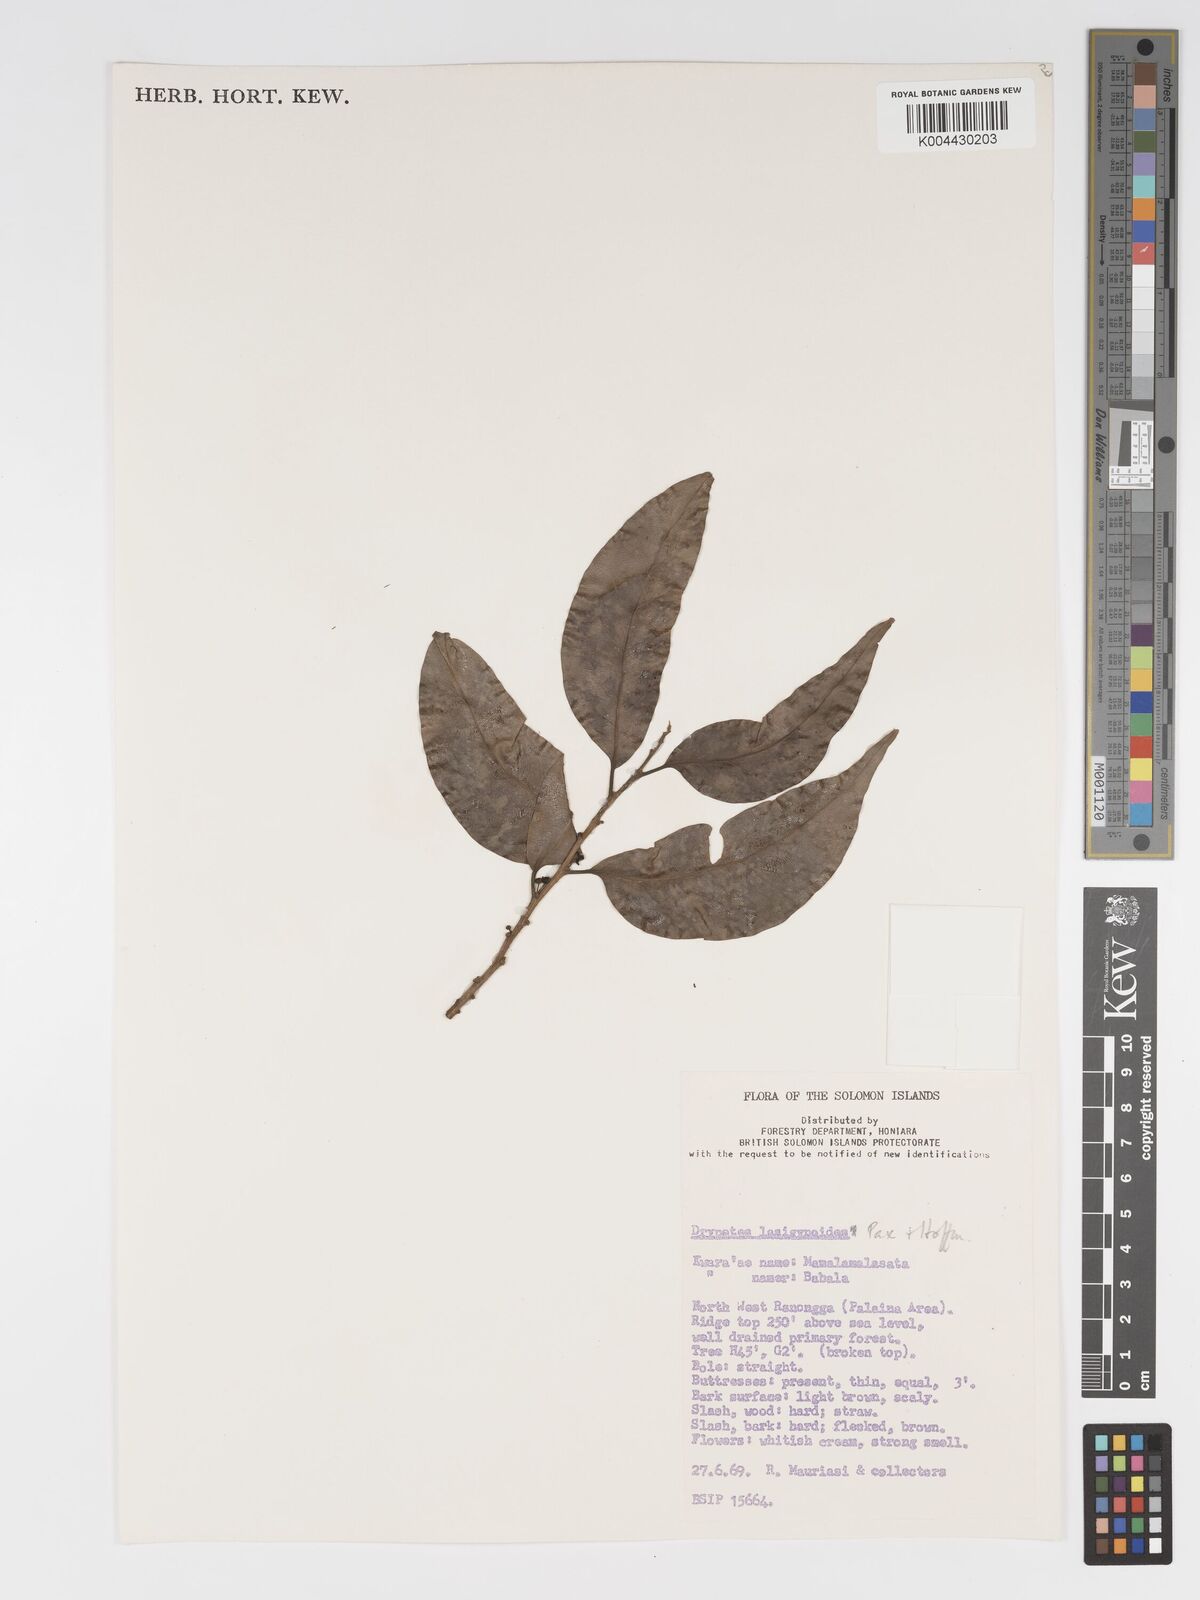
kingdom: Plantae
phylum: Tracheophyta
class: Magnoliopsida
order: Malpighiales
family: Putranjivaceae
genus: Drypetes
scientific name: Drypetes lasiogynoides
